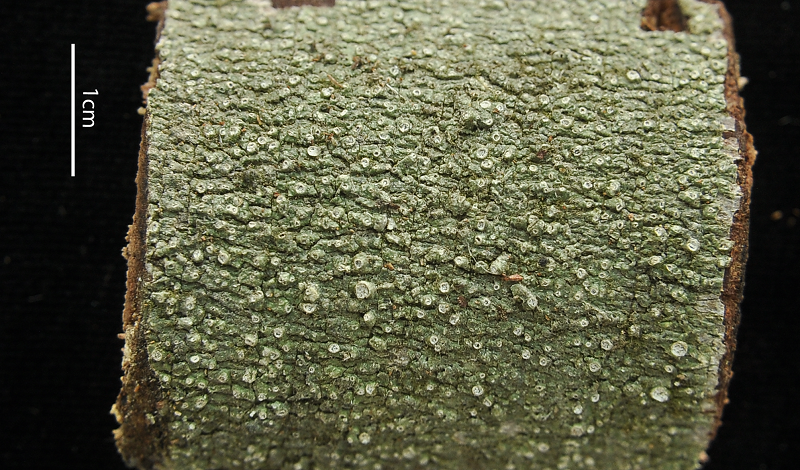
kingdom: Fungi
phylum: Ascomycota
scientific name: Ascomycota
